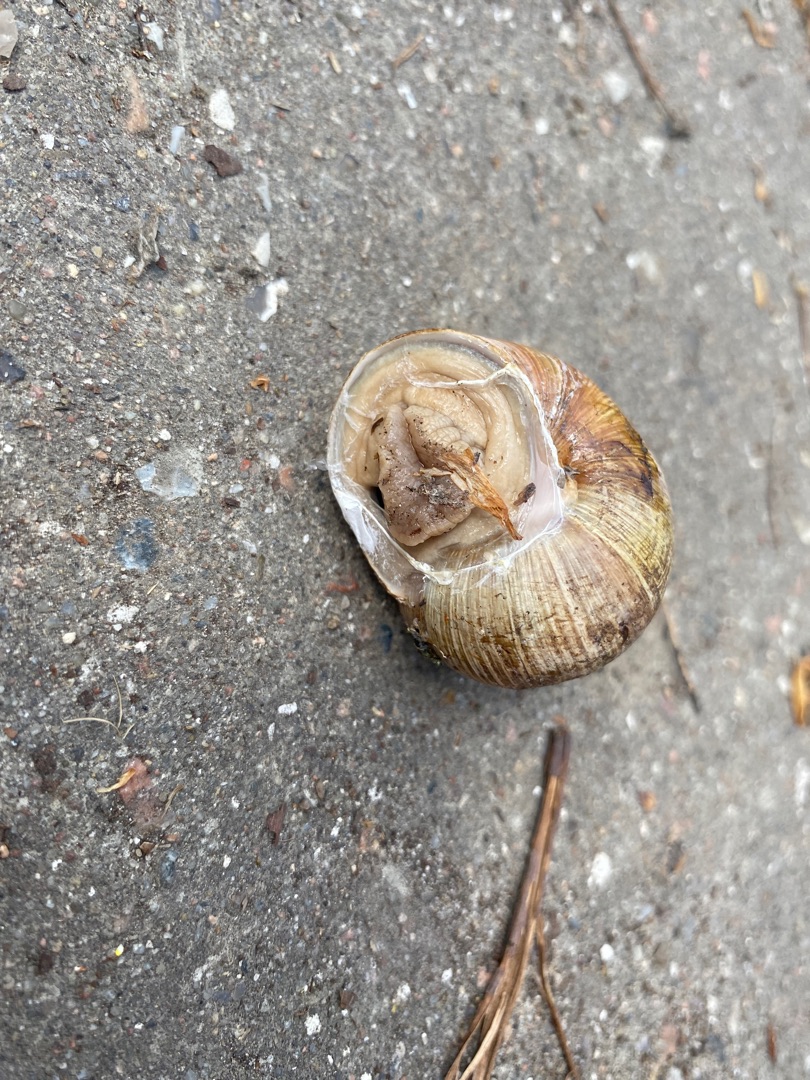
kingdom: Animalia
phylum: Mollusca
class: Gastropoda
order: Stylommatophora
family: Helicidae
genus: Helix
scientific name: Helix pomatia
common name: Vinbjergsnegl
